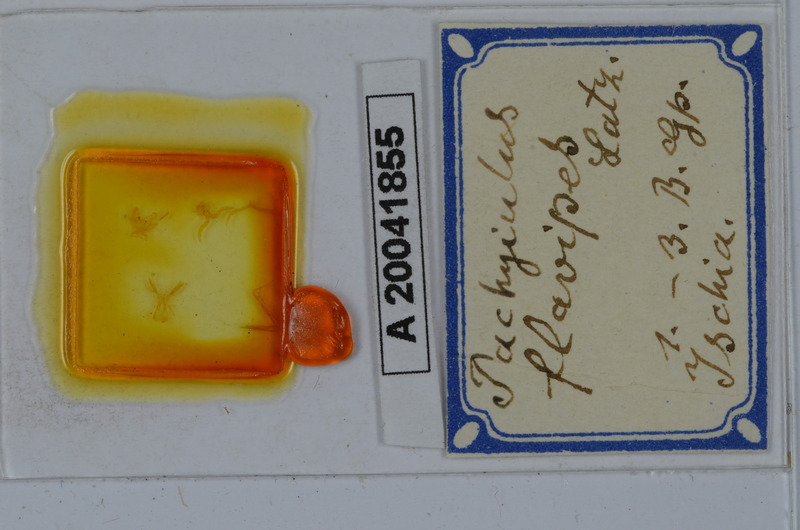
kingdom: Animalia
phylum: Arthropoda
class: Diplopoda
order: Julida
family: Julidae
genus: Pachyiulus
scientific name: Pachyiulus flavipes
